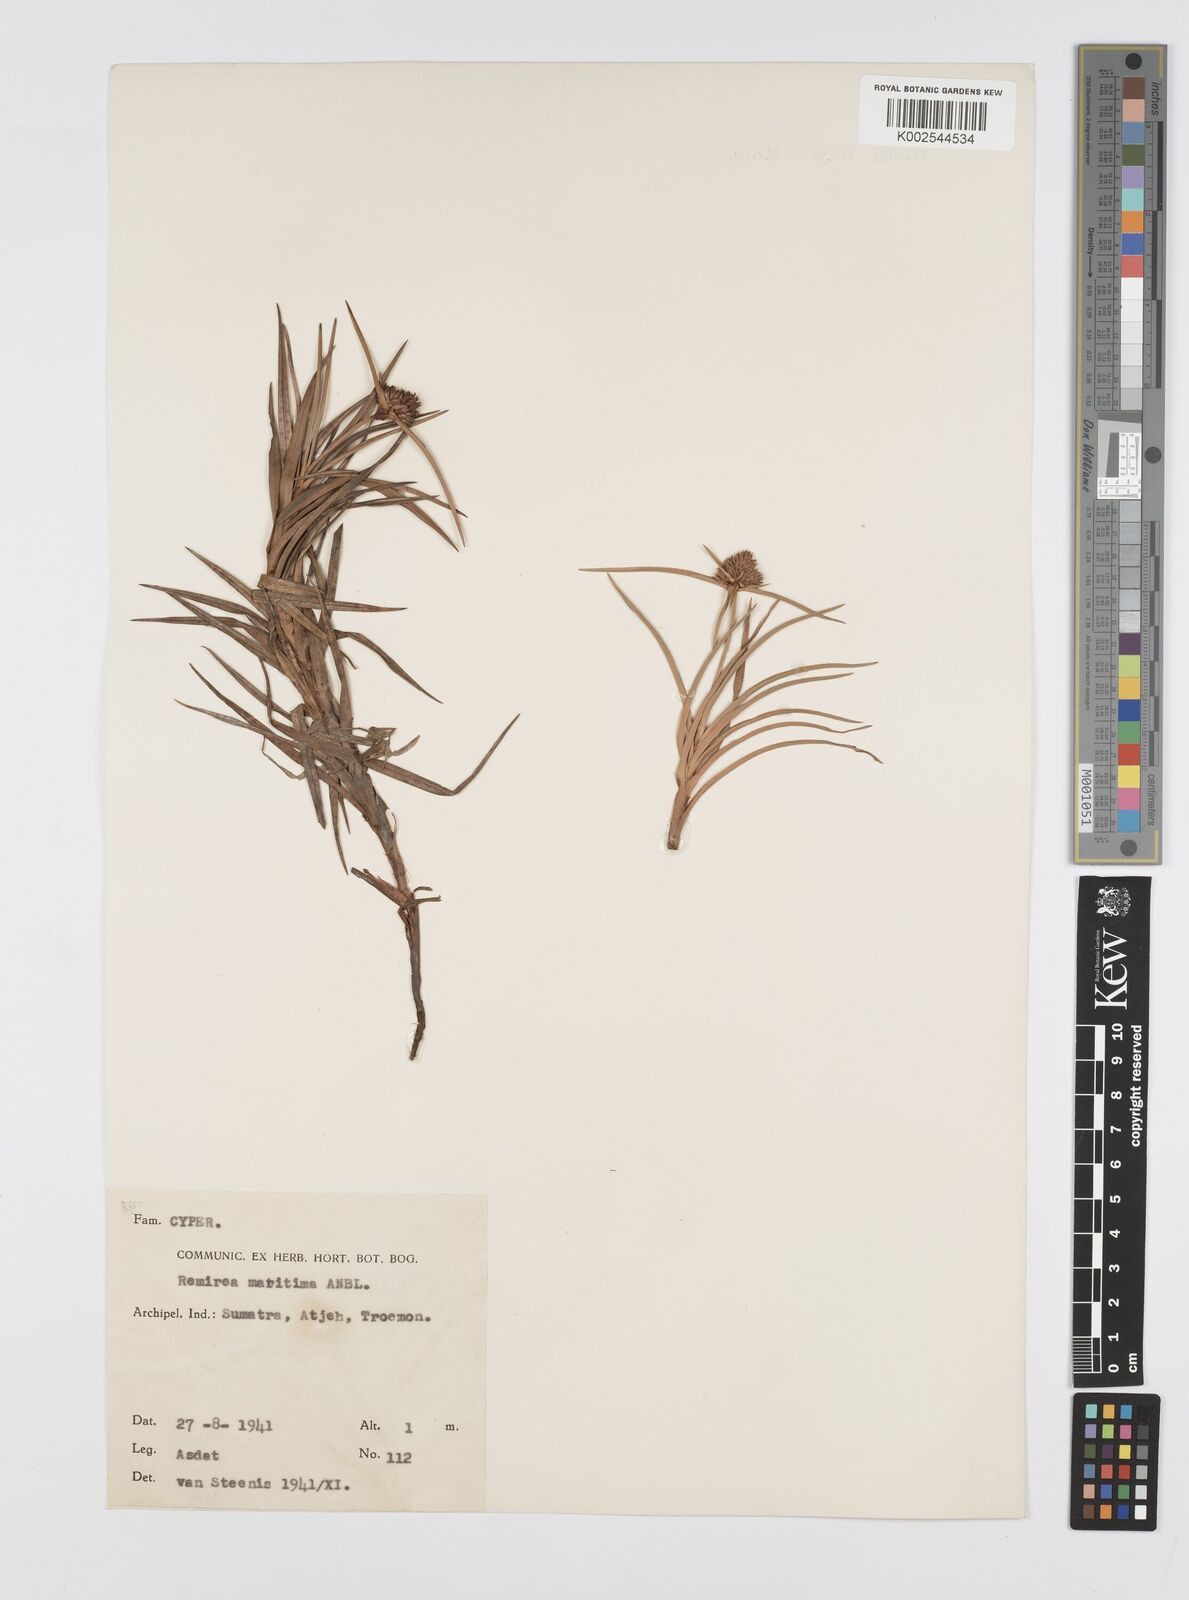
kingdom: Plantae
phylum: Tracheophyta
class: Liliopsida
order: Poales
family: Cyperaceae
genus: Cyperus
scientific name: Cyperus
